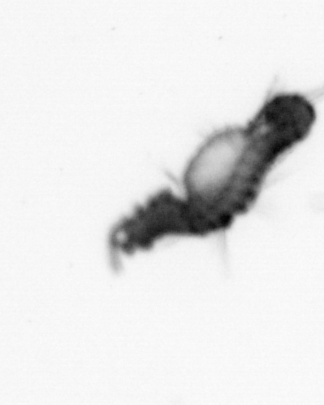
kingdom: Animalia
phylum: Annelida
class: Polychaeta
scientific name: Polychaeta
